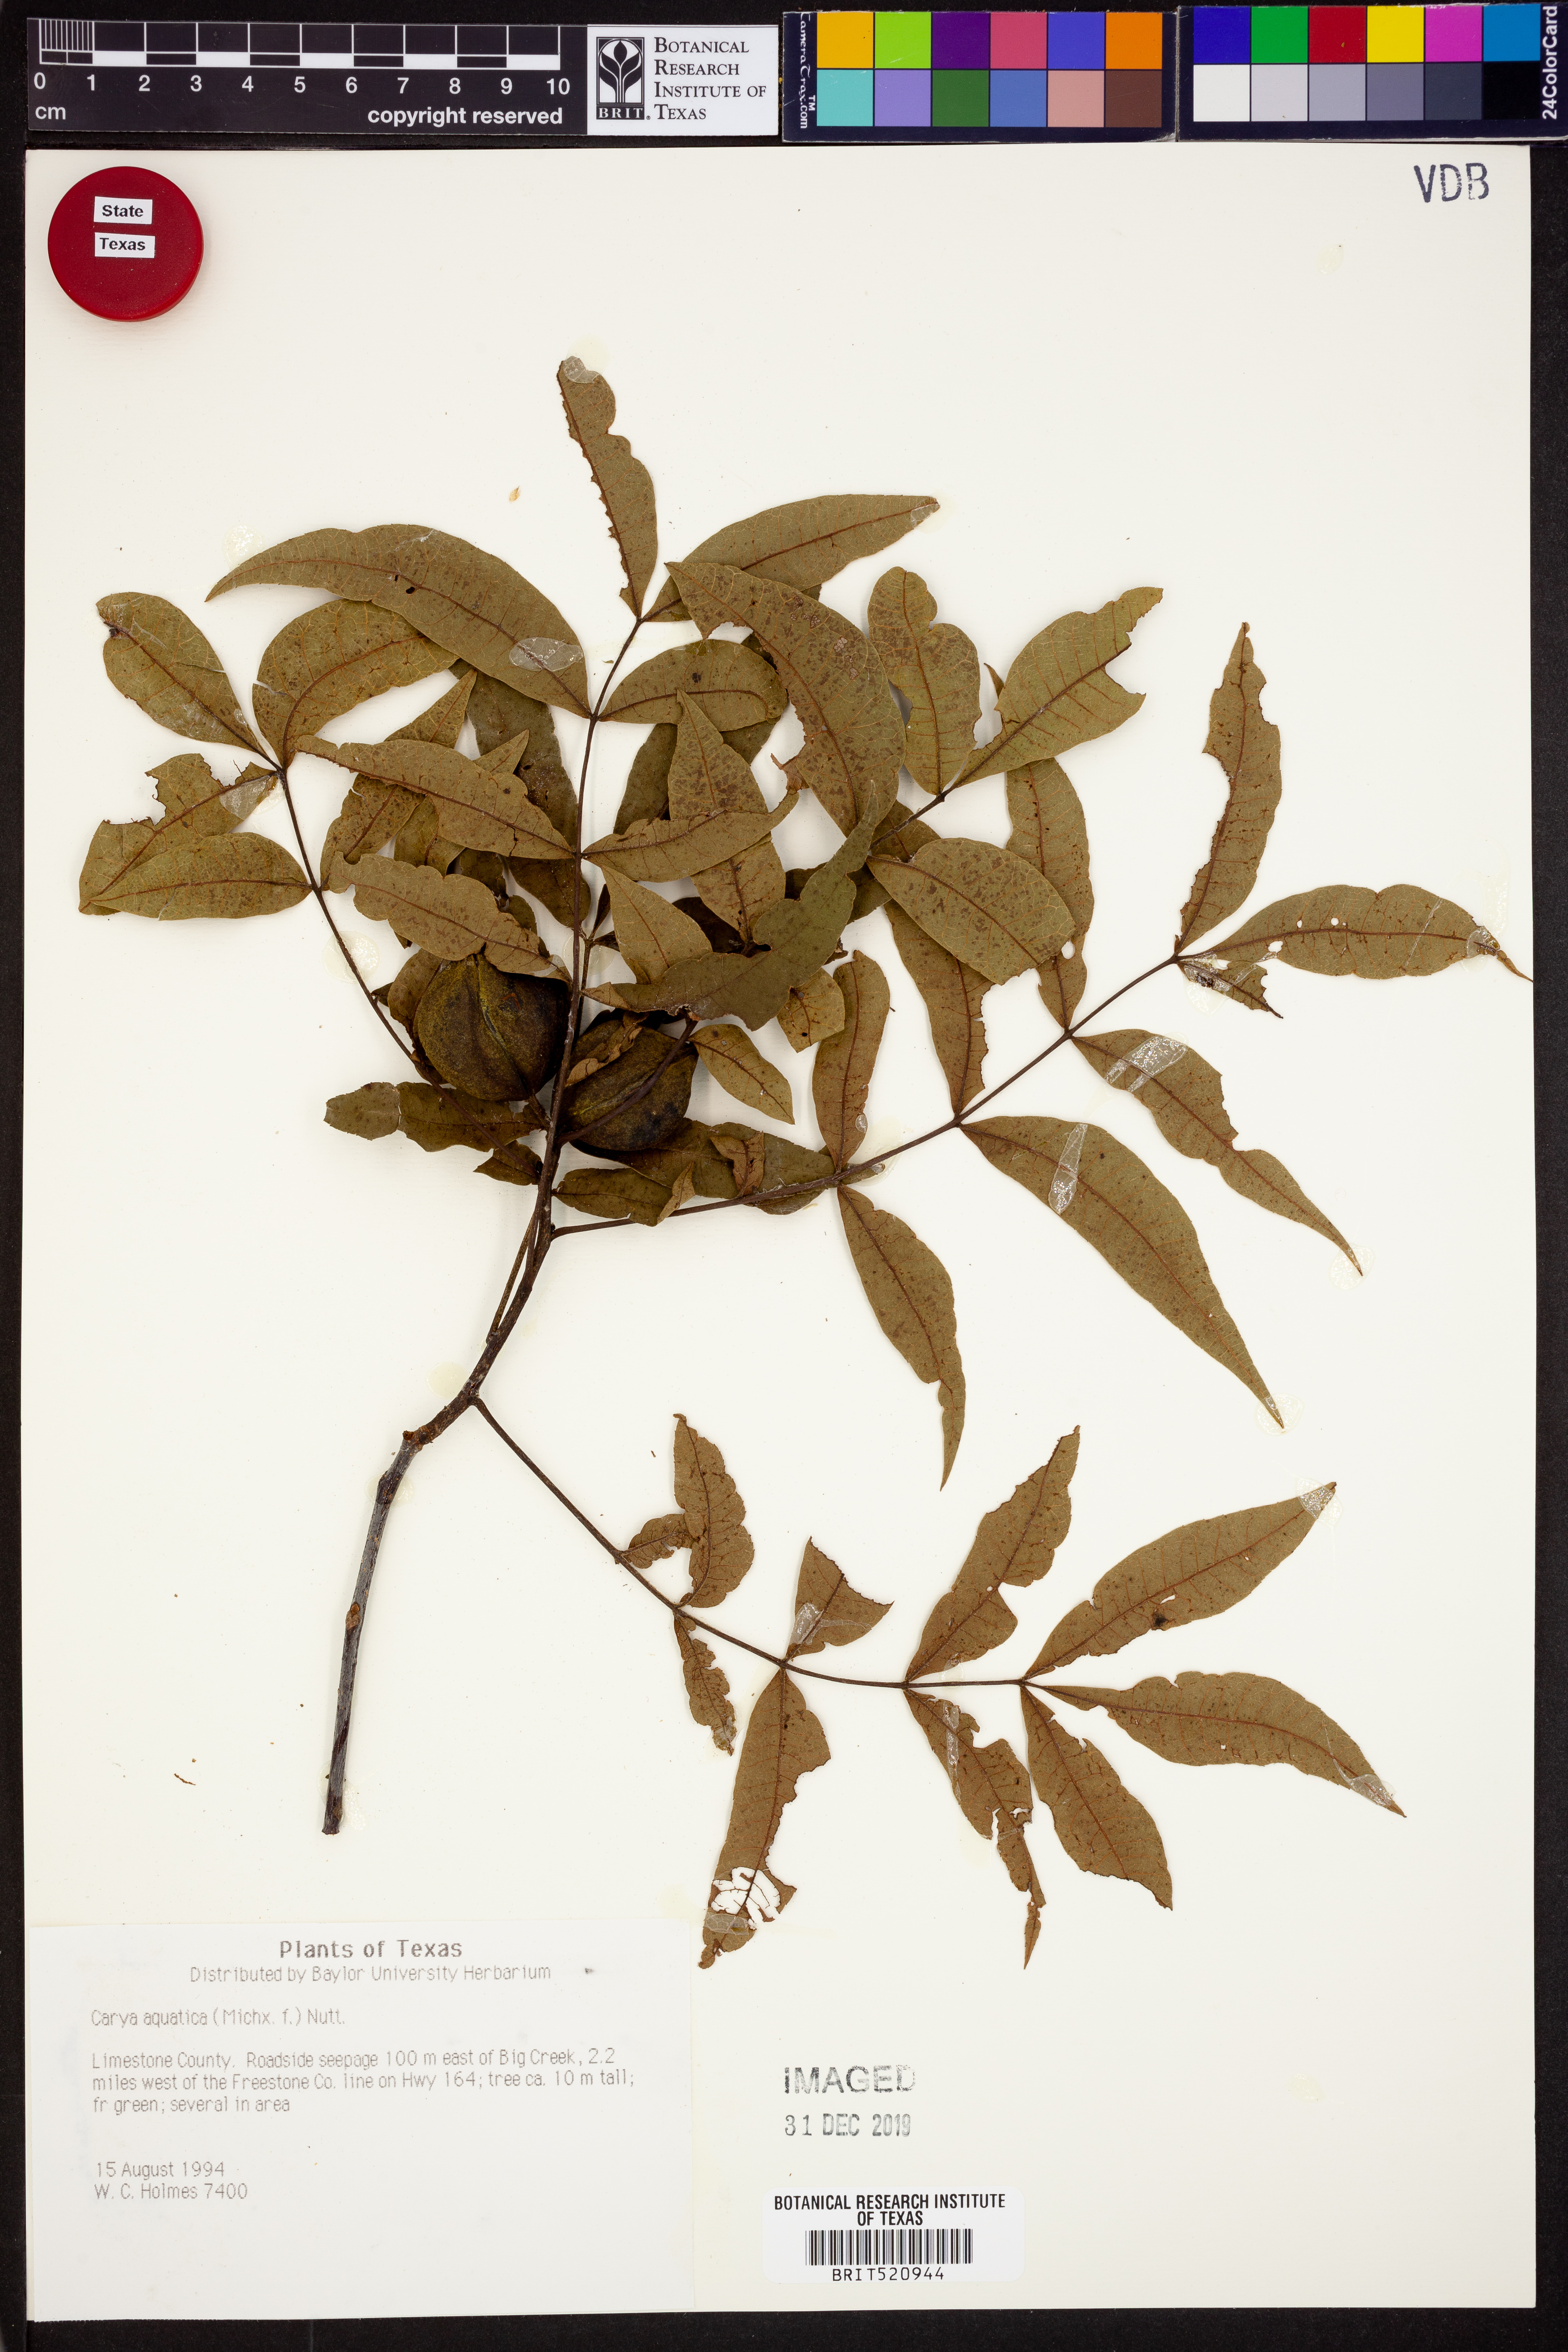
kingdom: Plantae
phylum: Tracheophyta
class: Magnoliopsida
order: Fagales
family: Juglandaceae
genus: Carya
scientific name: Carya aquatica
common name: Water hickory
